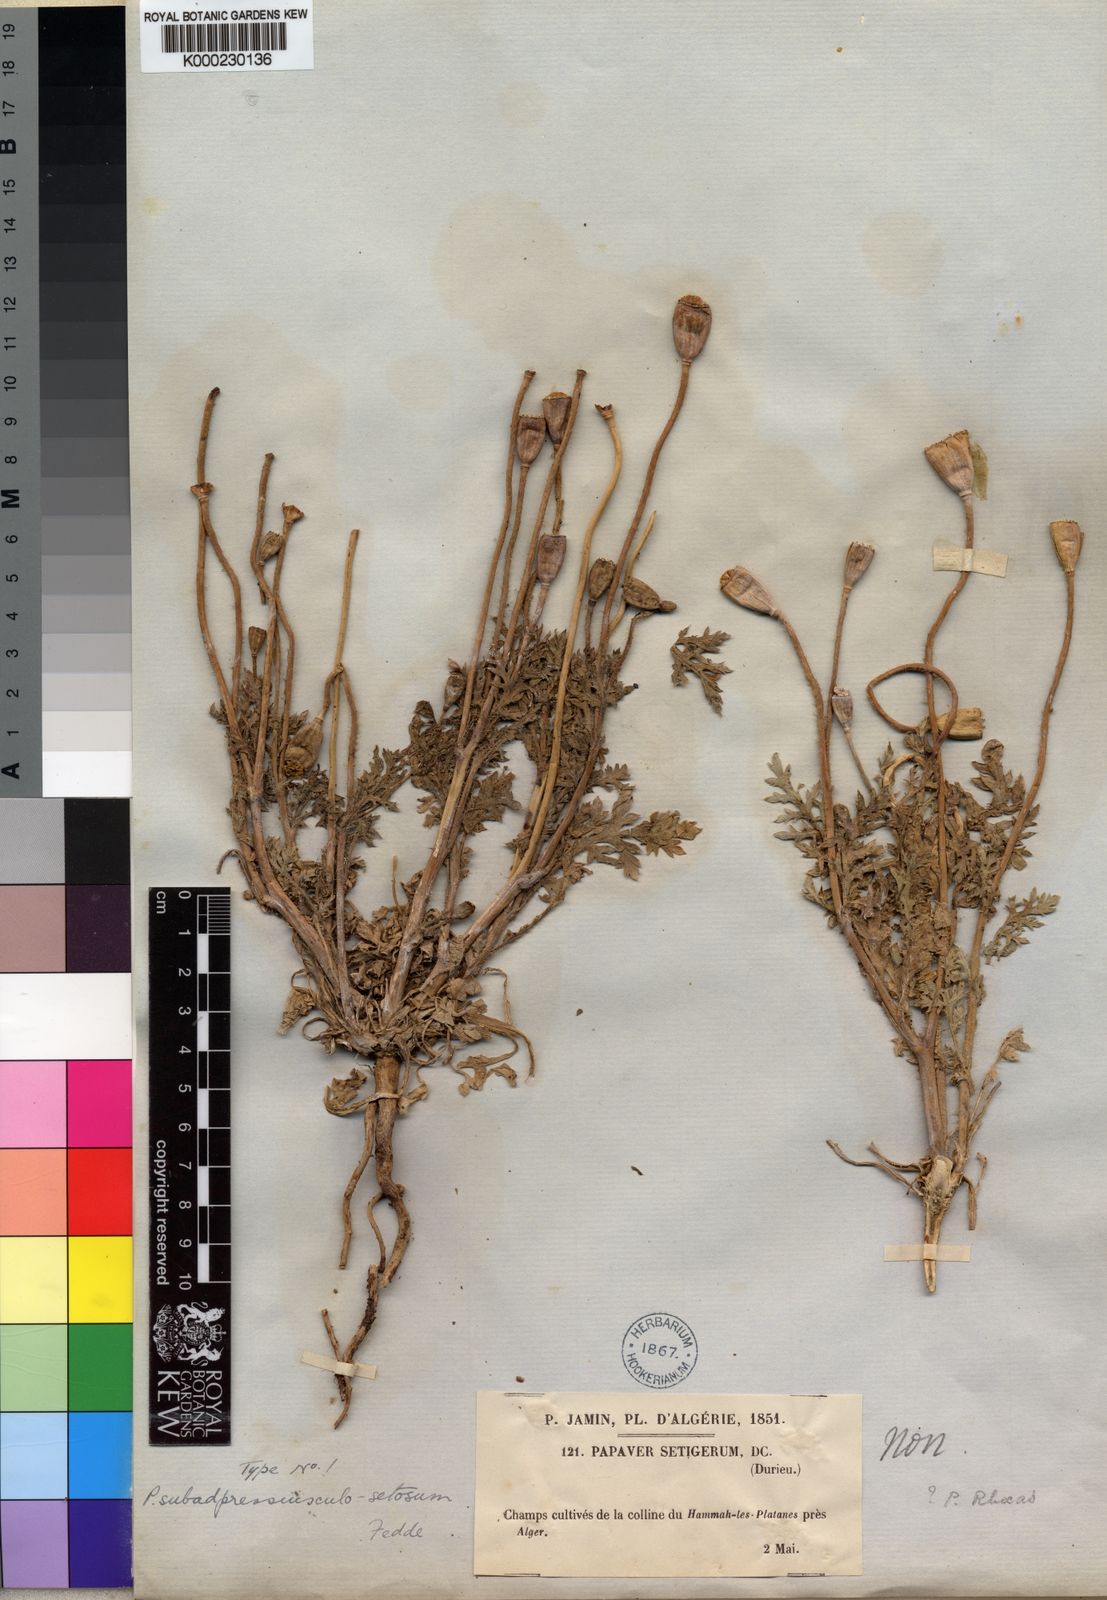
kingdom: Plantae
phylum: Tracheophyta
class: Magnoliopsida
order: Ranunculales
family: Papaveraceae
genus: Papaver
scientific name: Papaver lecoqii
